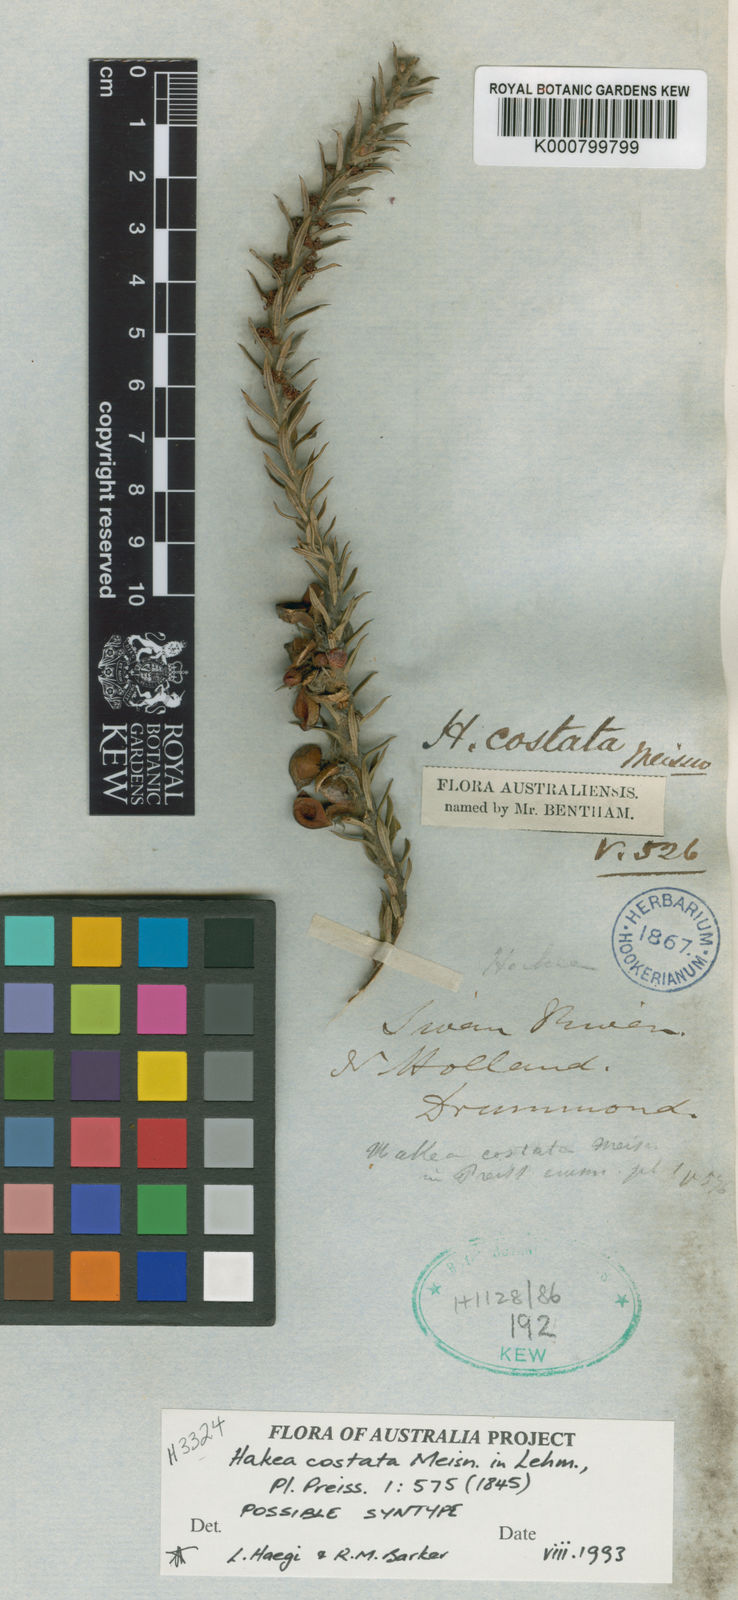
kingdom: Plantae
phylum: Tracheophyta
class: Magnoliopsida
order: Proteales
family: Proteaceae
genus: Hakea
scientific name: Hakea costata
